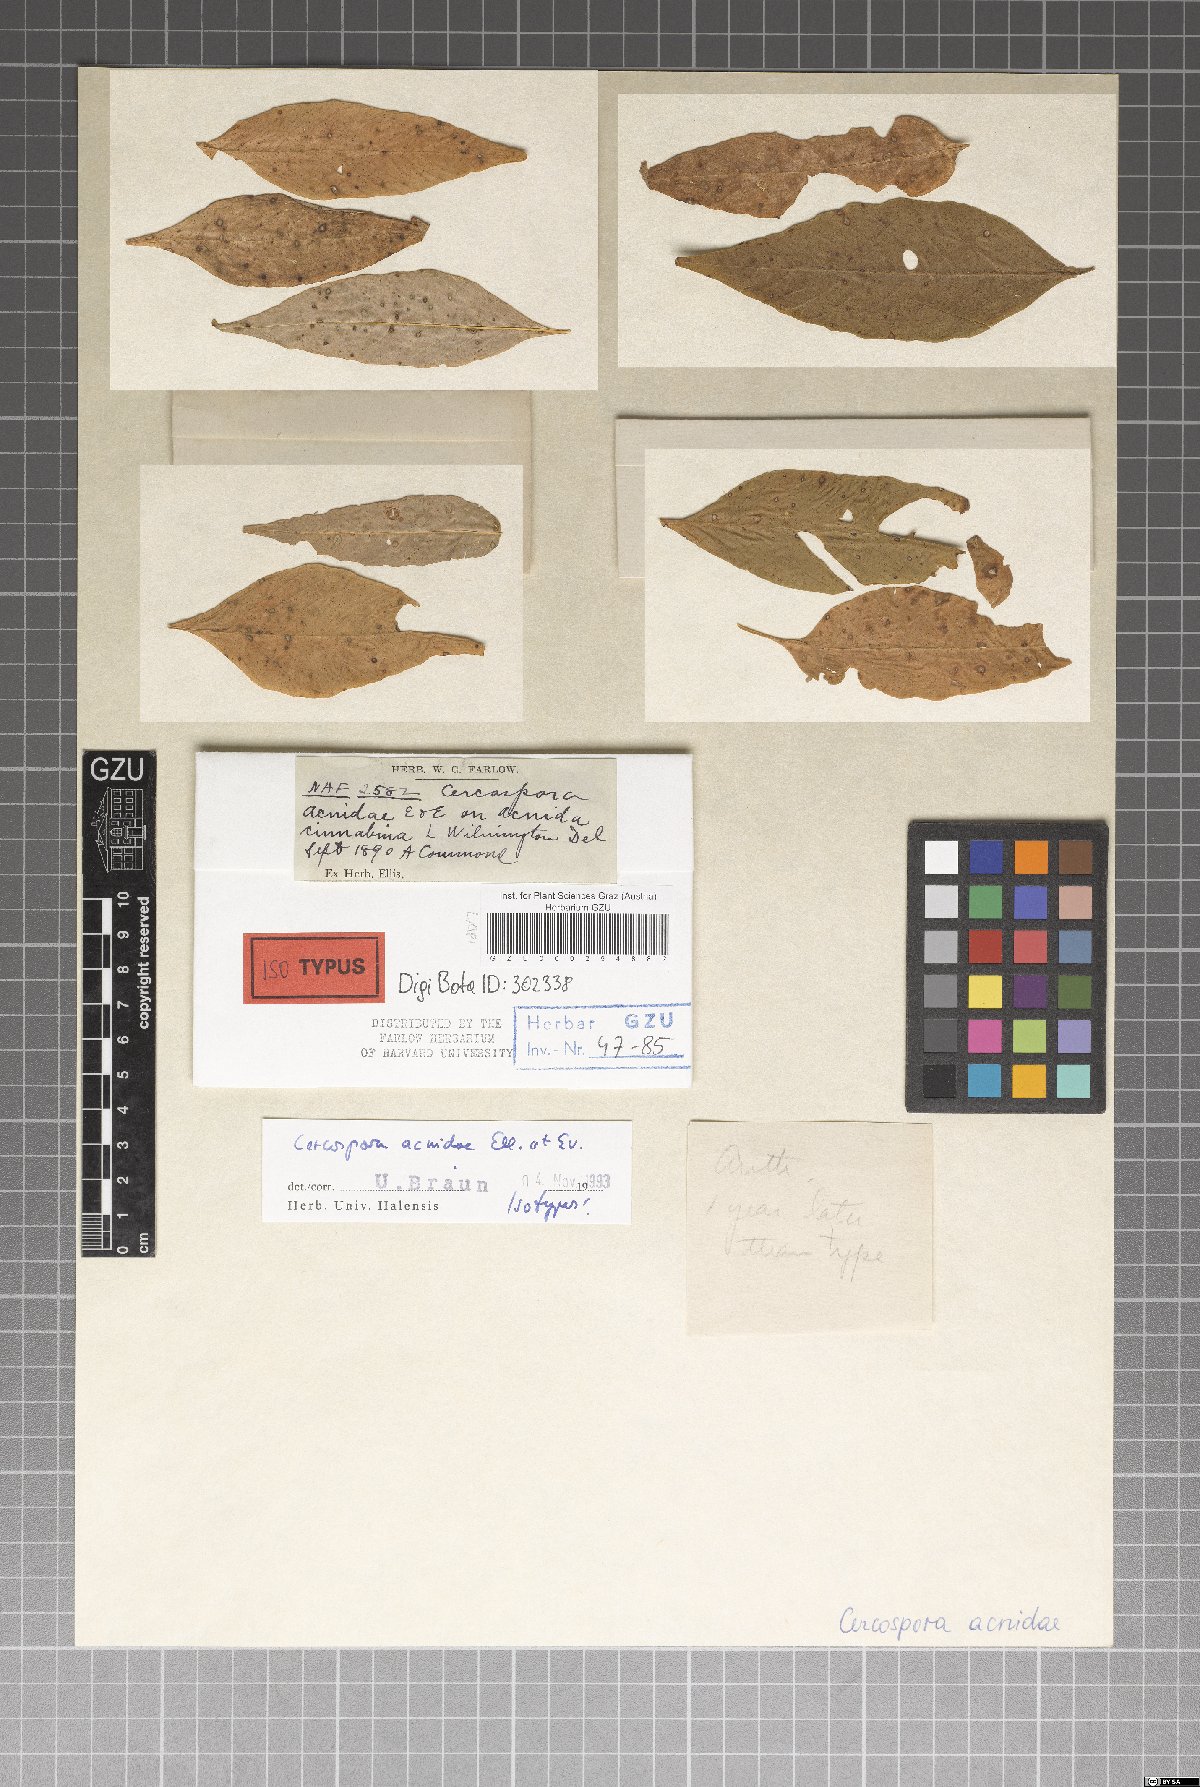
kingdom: Fungi
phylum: Ascomycota
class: Dothideomycetes
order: Mycosphaerellales
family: Mycosphaerellaceae
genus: Cercospora
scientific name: Cercospora
